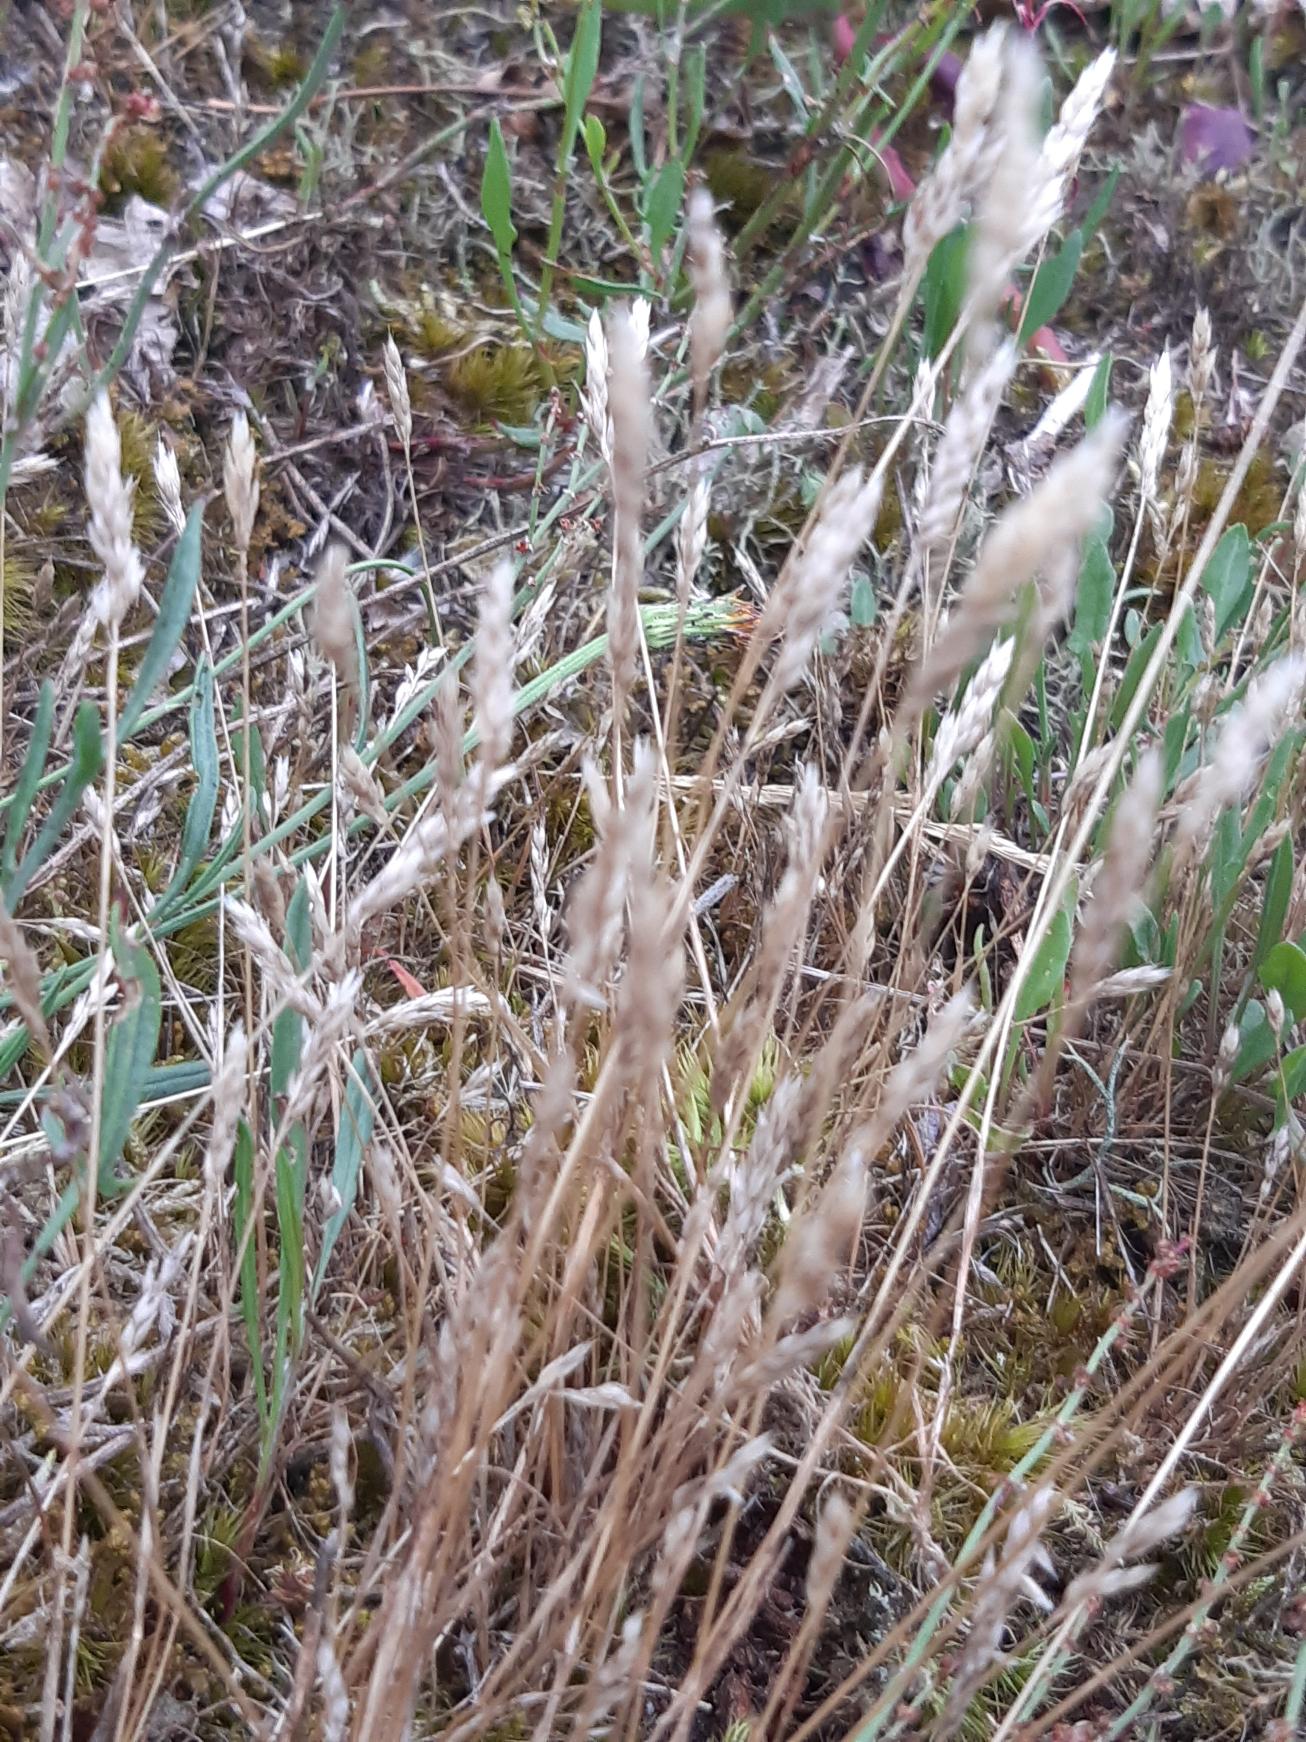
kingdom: Plantae
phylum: Tracheophyta
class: Liliopsida
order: Poales
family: Poaceae
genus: Aira
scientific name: Aira praecox
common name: Tidlig dværgbunke
